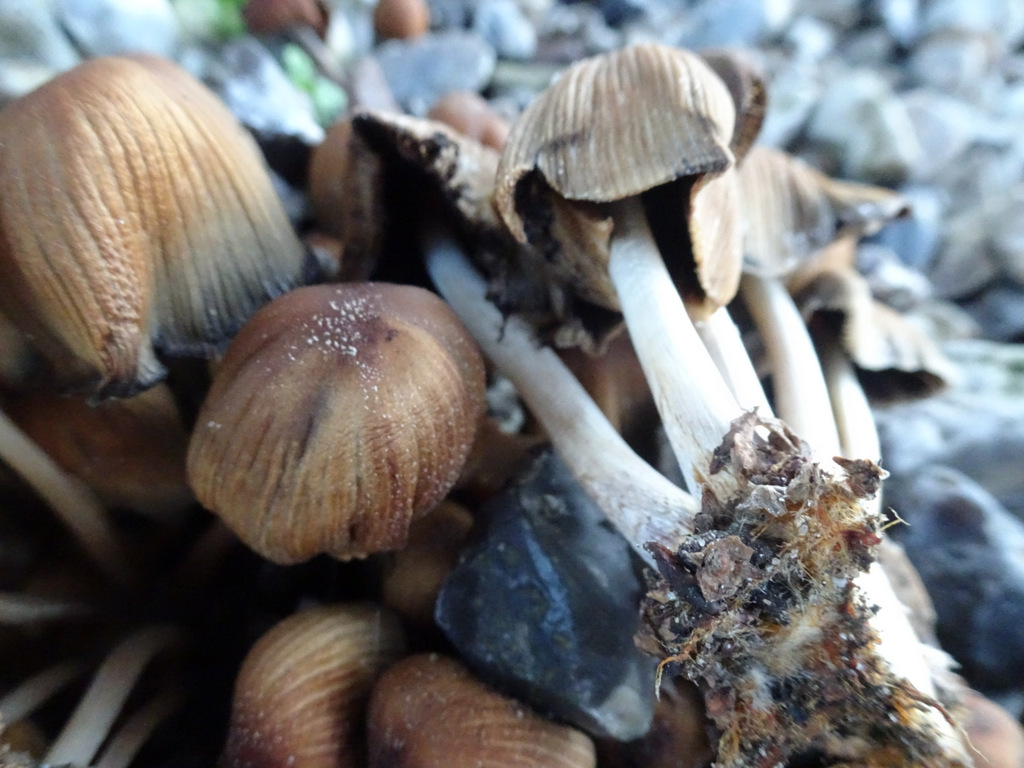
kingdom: Fungi
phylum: Basidiomycota
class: Agaricomycetes
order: Agaricales
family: Psathyrellaceae
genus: Coprinellus
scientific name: Coprinellus micaceus
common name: glimmer-blækhat
